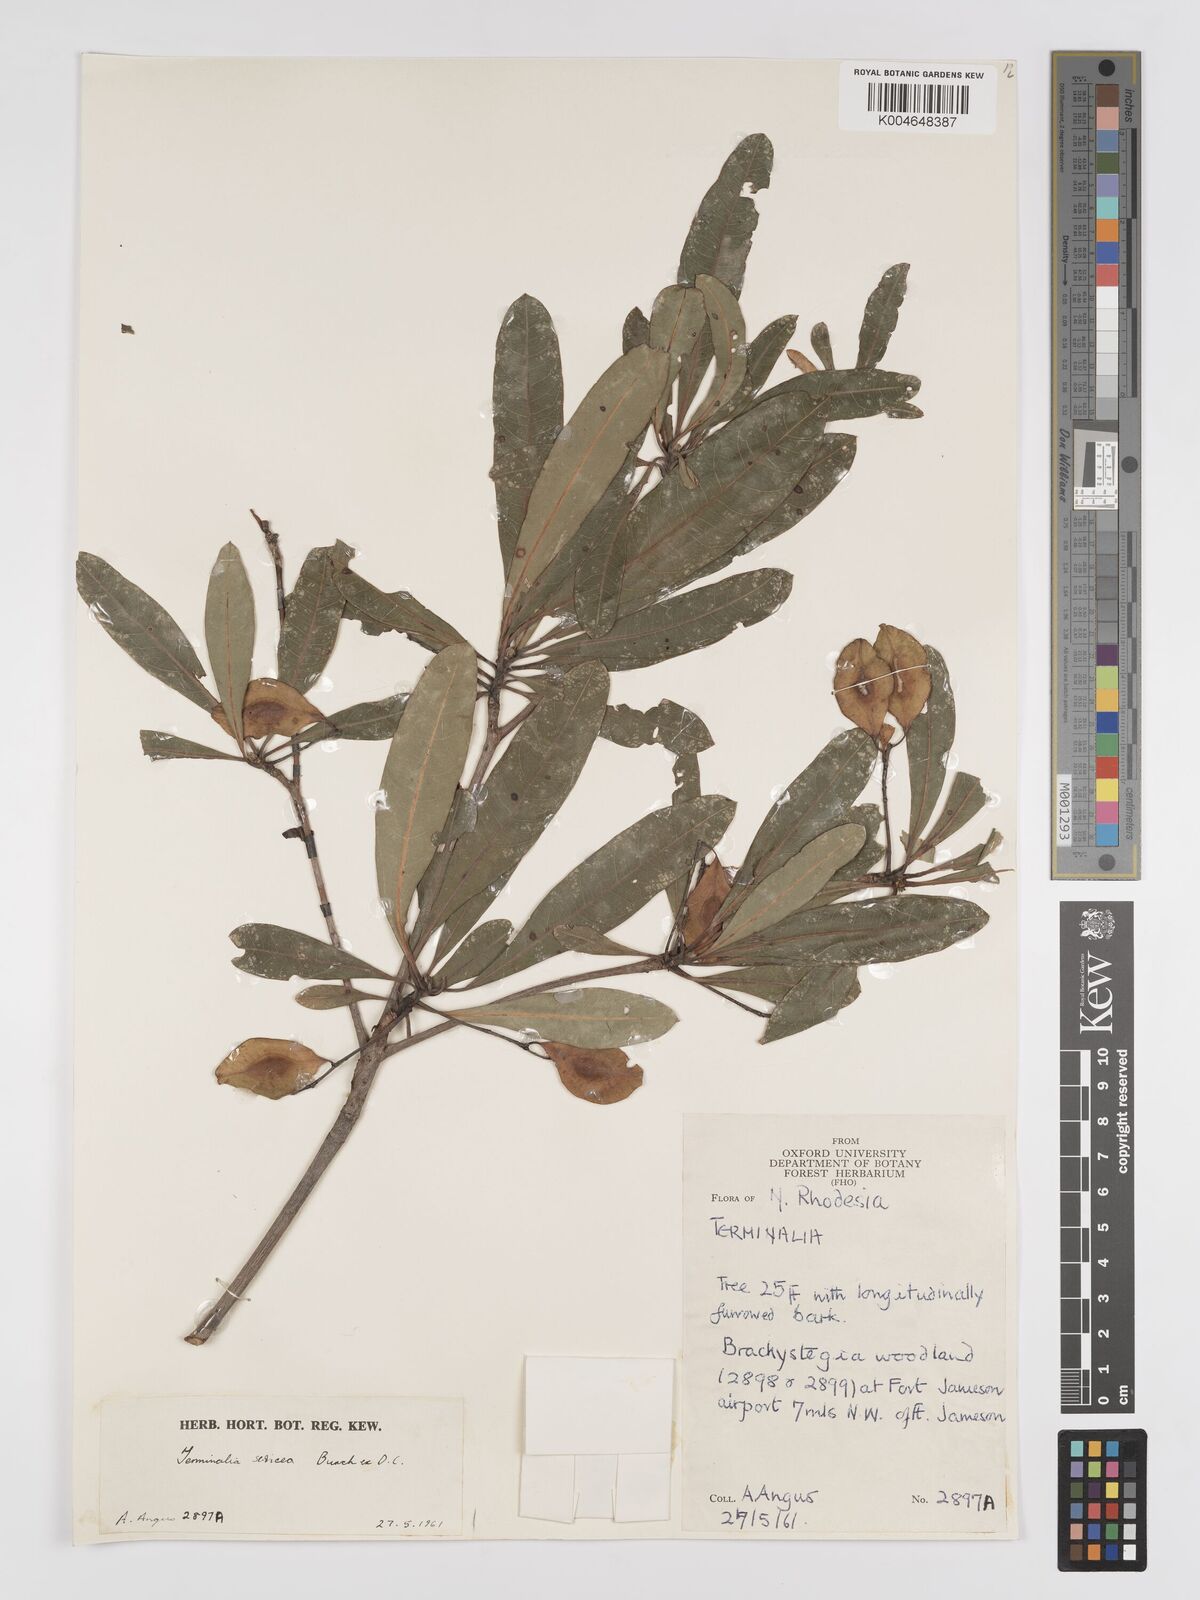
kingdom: Plantae
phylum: Tracheophyta
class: Magnoliopsida
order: Myrtales
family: Combretaceae
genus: Terminalia
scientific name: Terminalia
